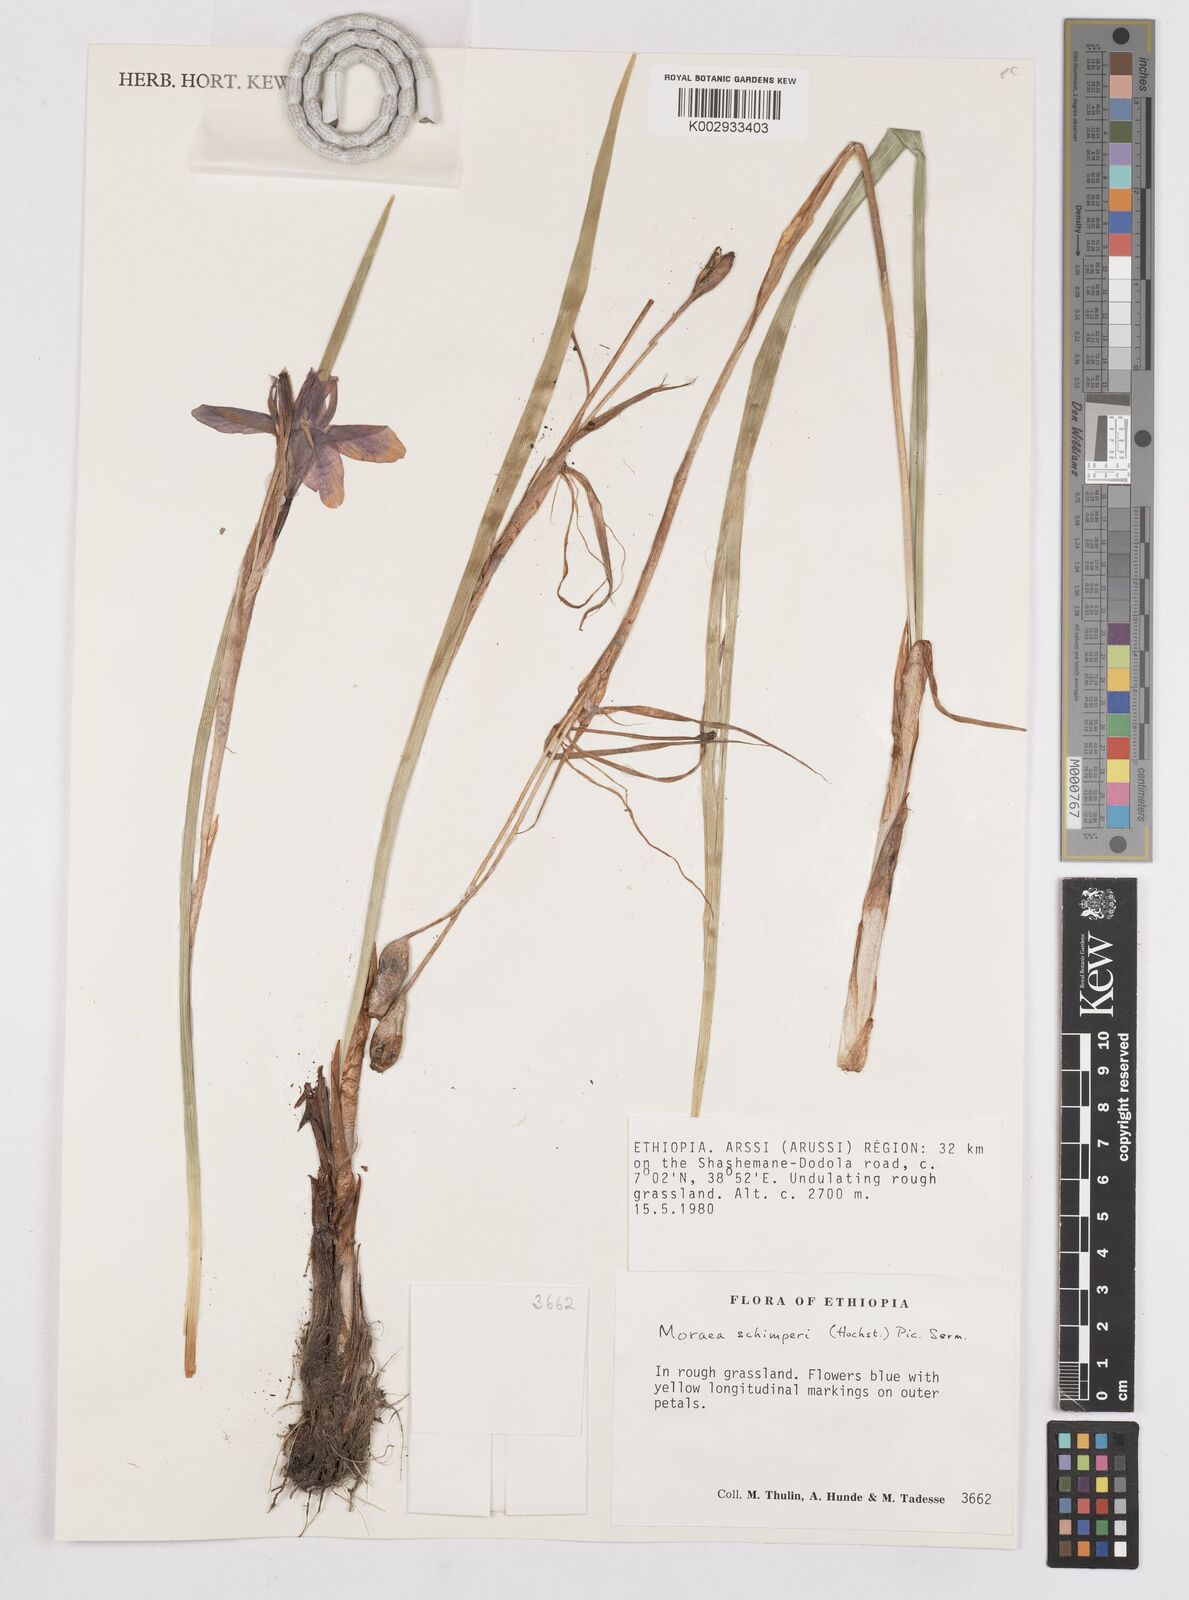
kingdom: Plantae
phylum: Tracheophyta
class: Liliopsida
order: Asparagales
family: Iridaceae
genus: Moraea
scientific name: Moraea schimperi
